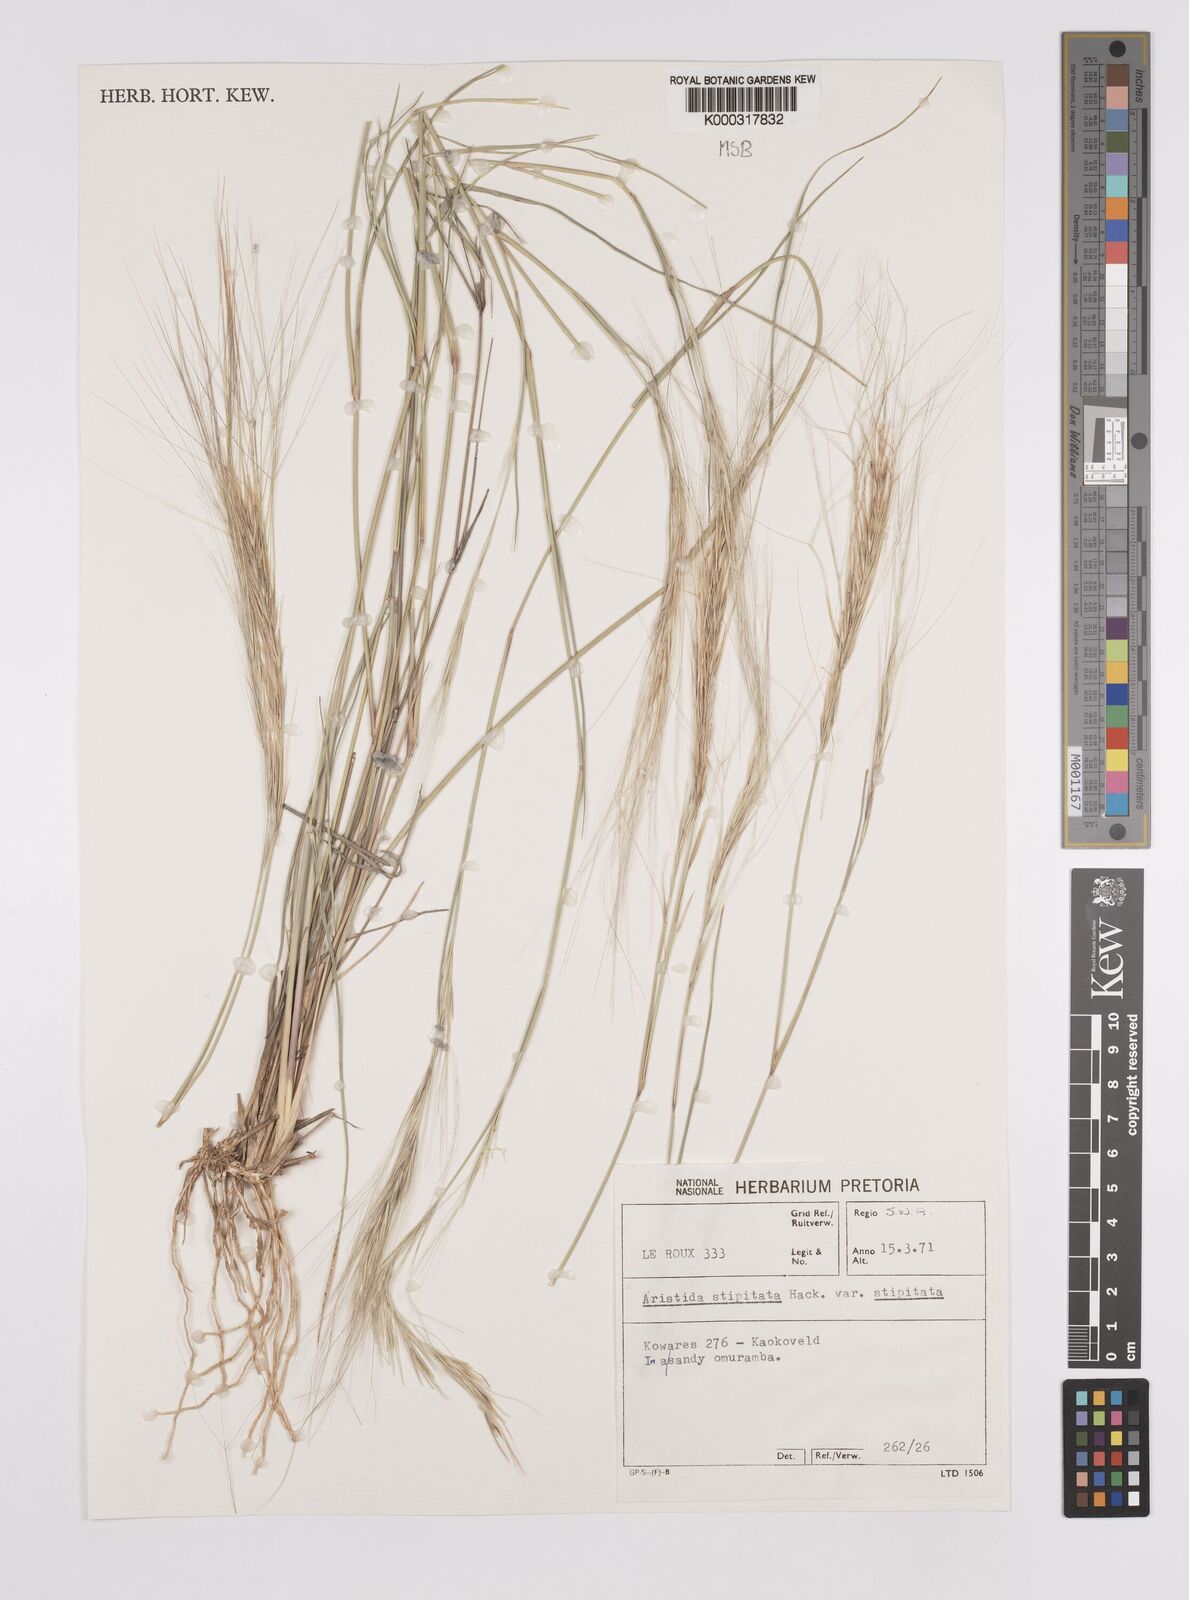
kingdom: Plantae
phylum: Tracheophyta
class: Liliopsida
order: Poales
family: Poaceae
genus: Aristida
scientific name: Aristida stipitata
